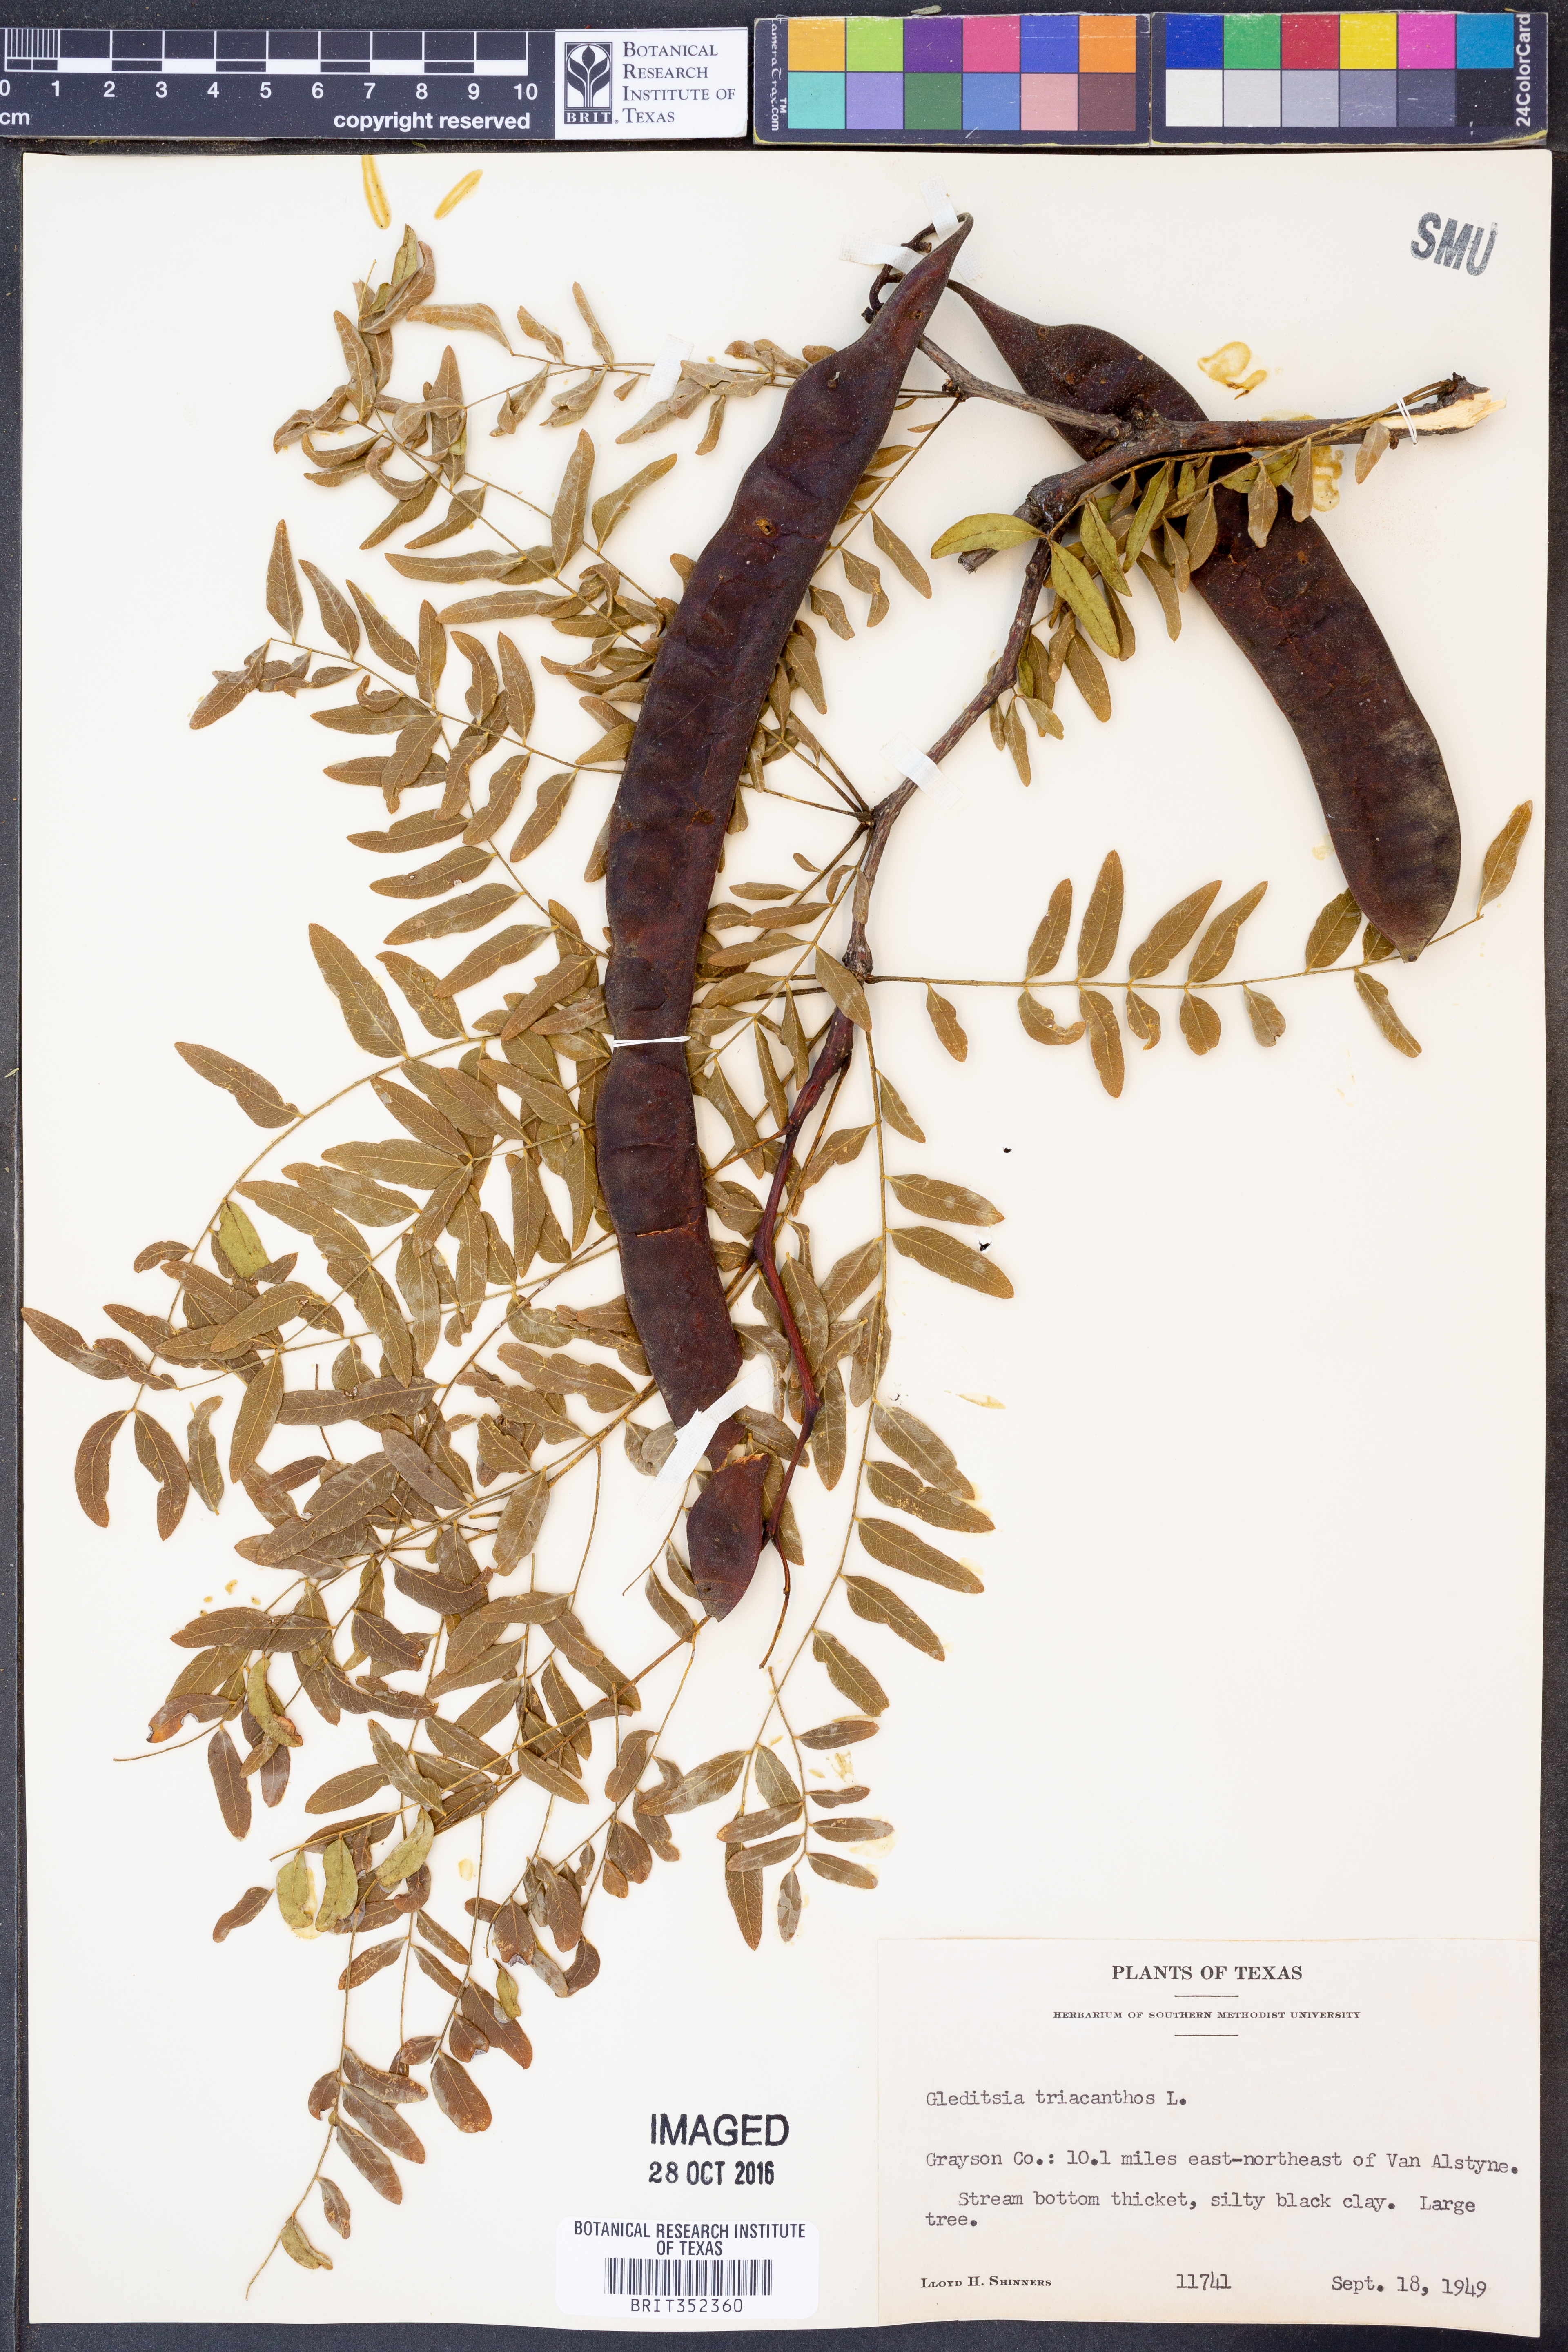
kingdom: Plantae
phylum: Tracheophyta
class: Magnoliopsida
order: Fabales
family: Fabaceae
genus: Gleditsia
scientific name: Gleditsia triacanthos
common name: Common honeylocust
